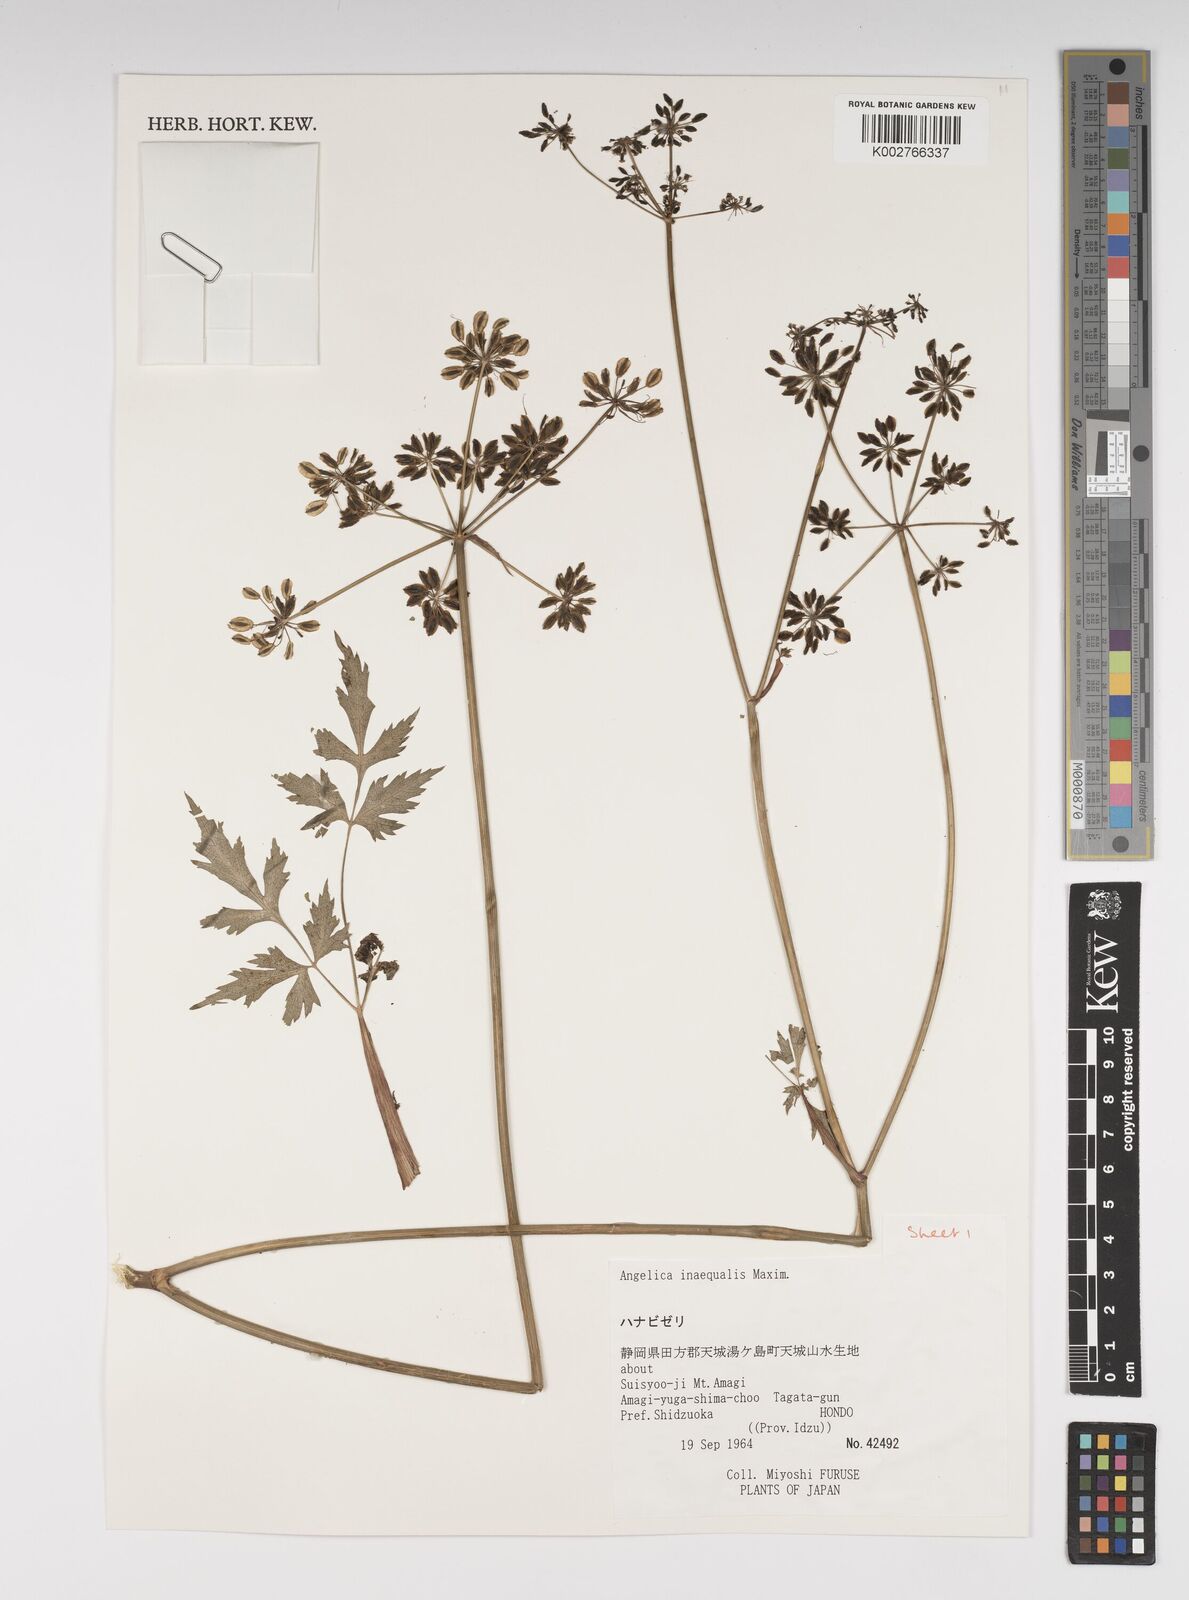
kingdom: Plantae
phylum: Tracheophyta
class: Magnoliopsida
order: Apiales
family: Apiaceae
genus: Angelica
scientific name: Angelica inaequalis
